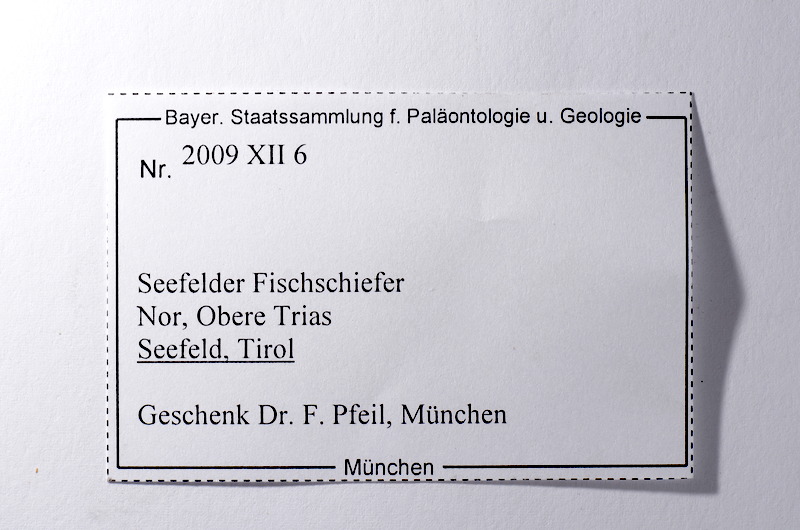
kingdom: Animalia
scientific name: Animalia
